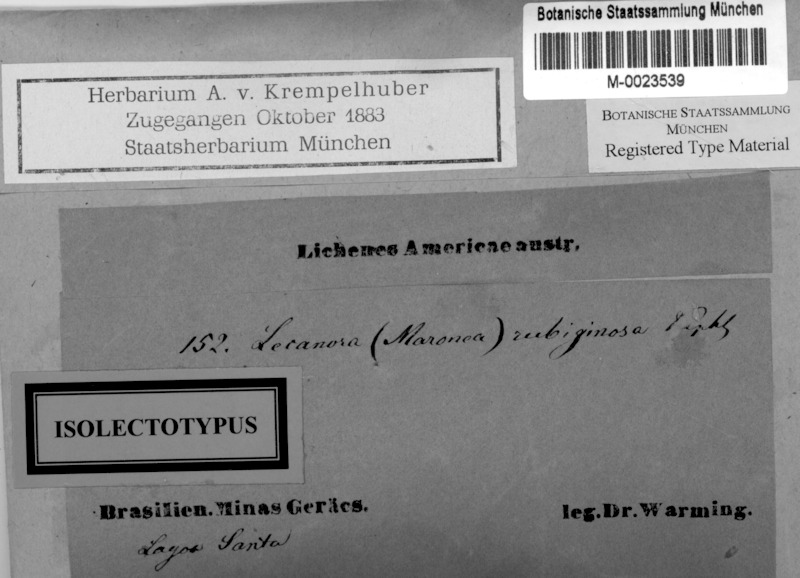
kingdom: Fungi
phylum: Ascomycota
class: Lecanoromycetes
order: Umbilicariales
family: Fuscideaceae
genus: Maronea
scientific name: Maronea rubiginosa
